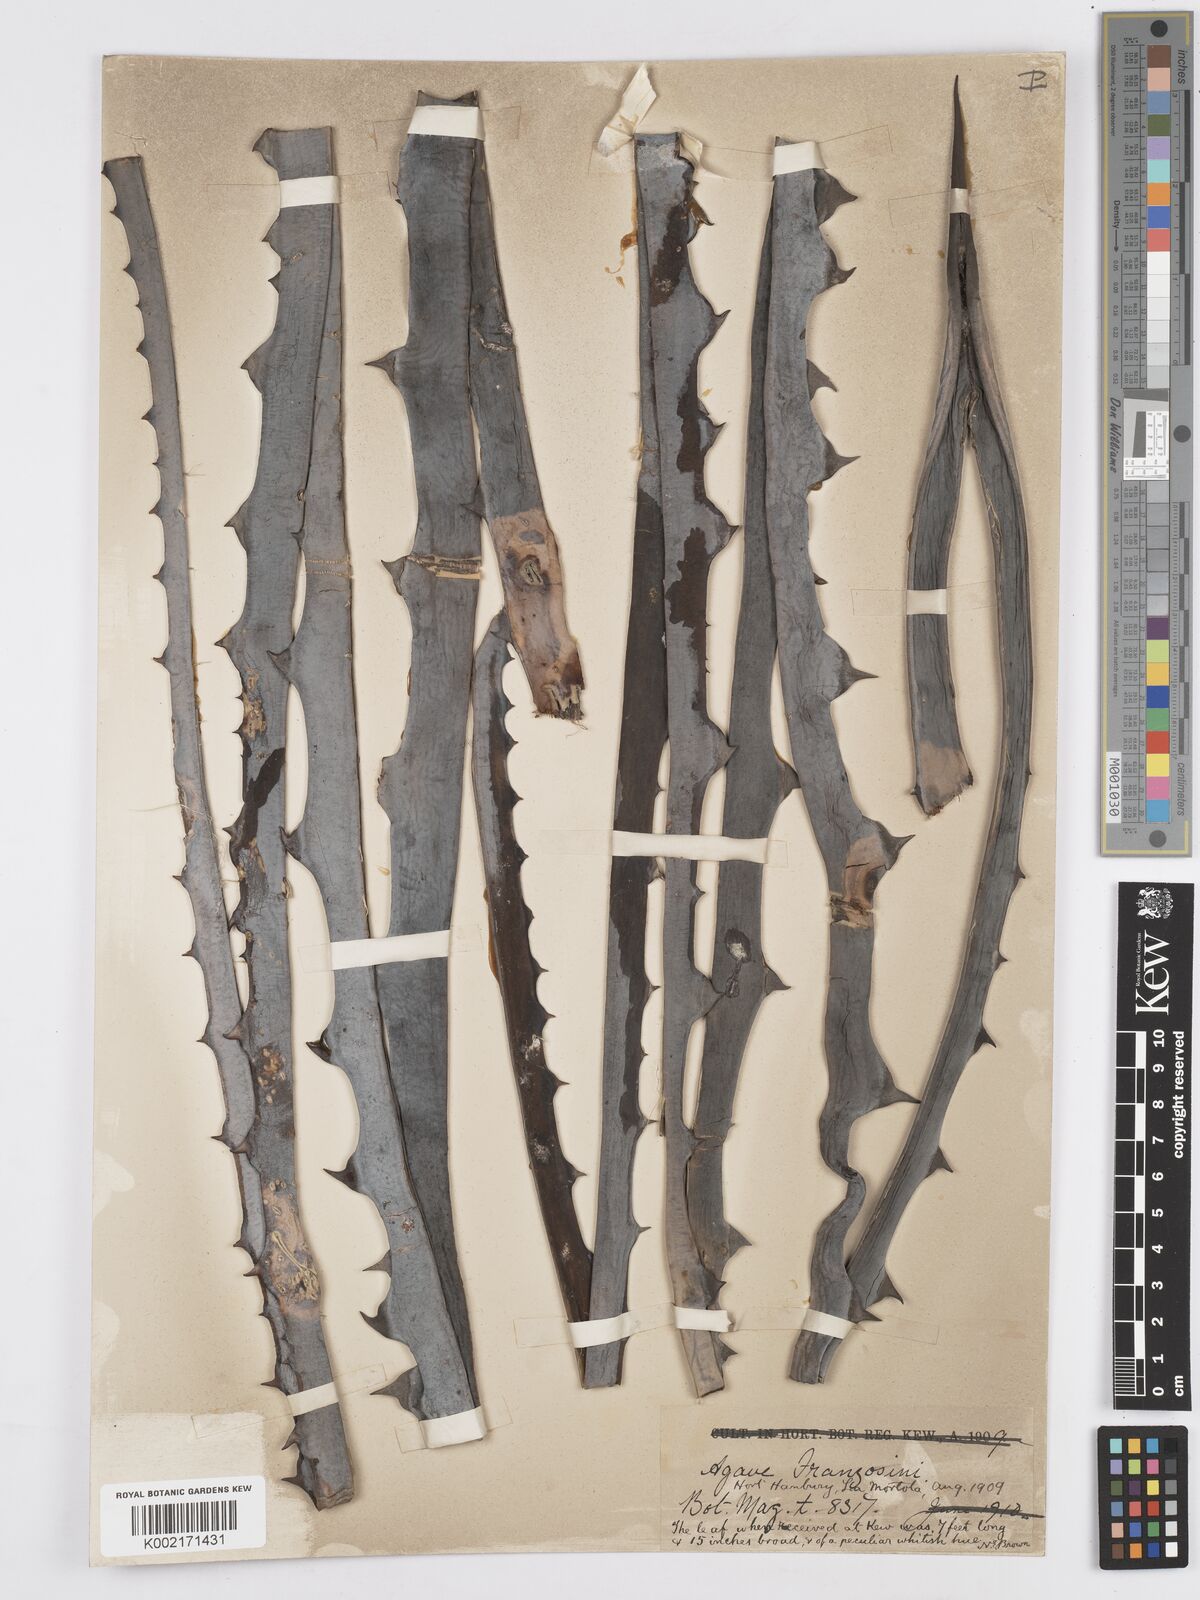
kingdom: Plantae
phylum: Tracheophyta
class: Liliopsida
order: Asparagales
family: Asparagaceae
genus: Agave
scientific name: Agave americana
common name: Centuryplant
